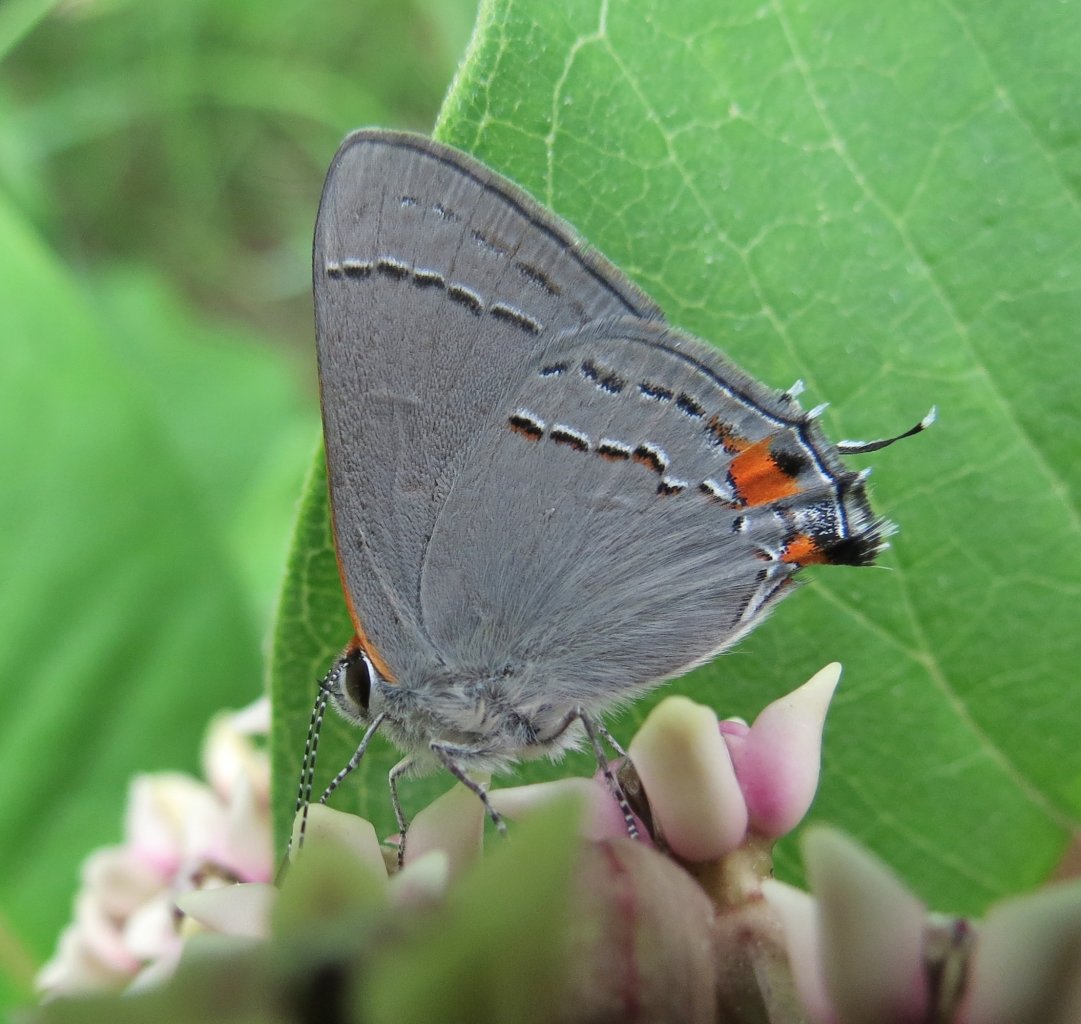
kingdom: Animalia
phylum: Arthropoda
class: Insecta
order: Lepidoptera
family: Lycaenidae
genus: Strymon
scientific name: Strymon melinus
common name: Gray Hairstreak
